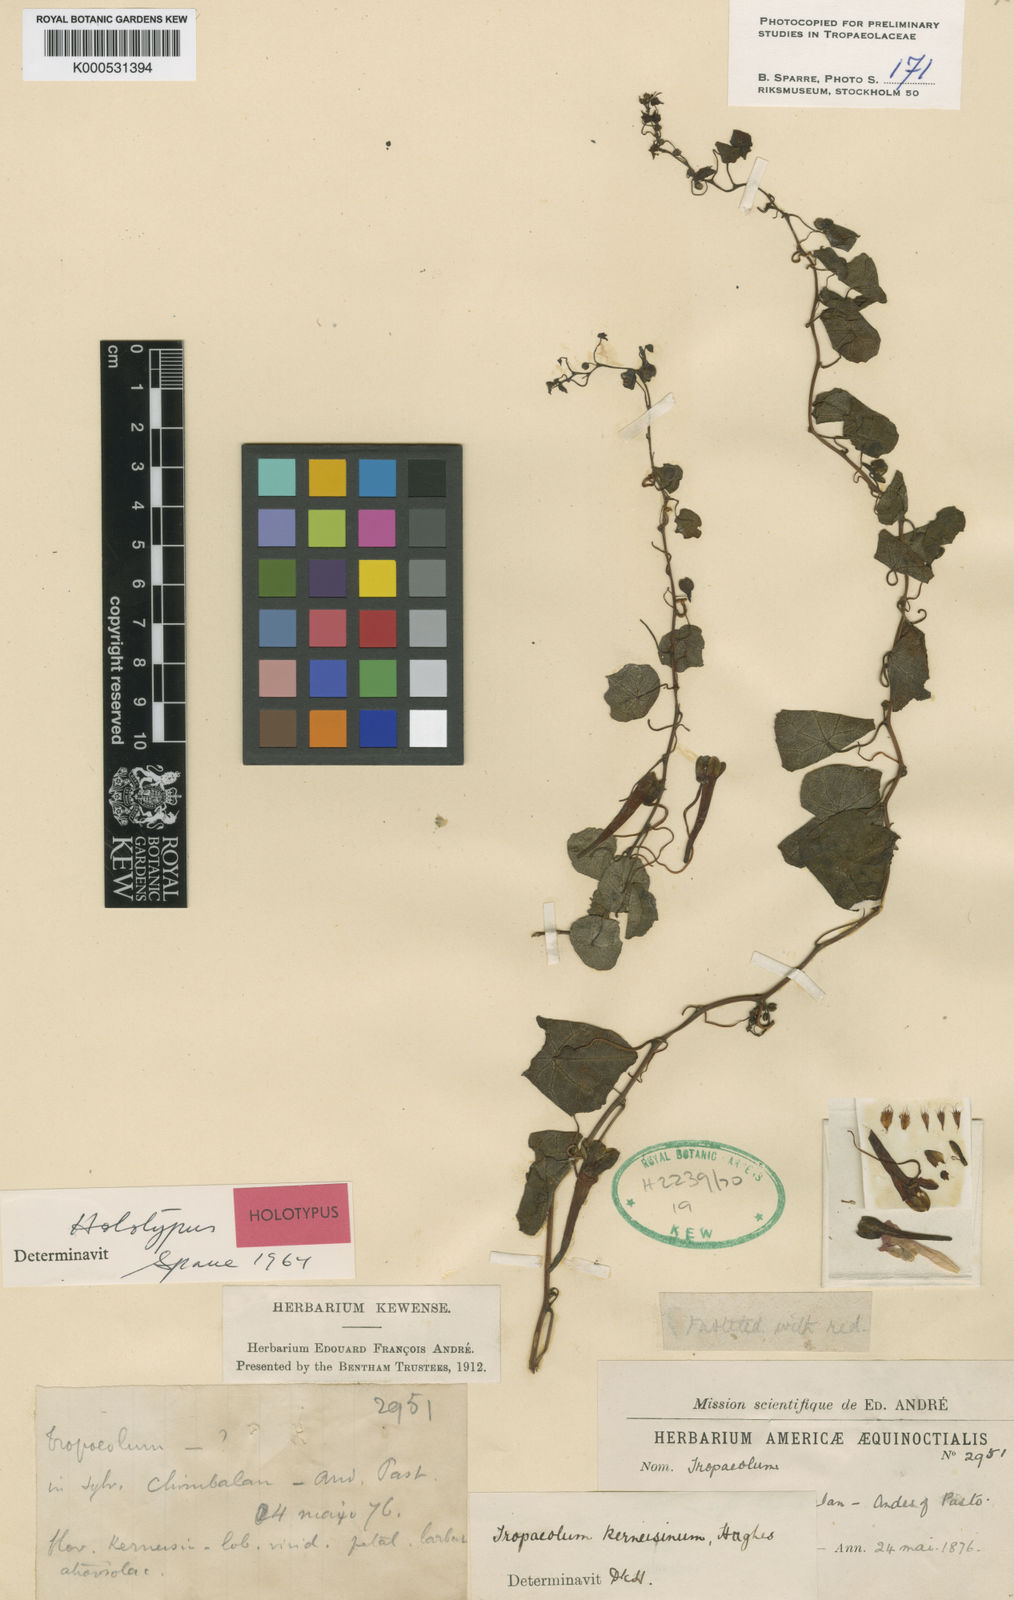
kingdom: Plantae
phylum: Tracheophyta
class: Magnoliopsida
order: Brassicales
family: Tropaeolaceae
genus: Tropaeolum
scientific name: Tropaeolum kerneisinum
